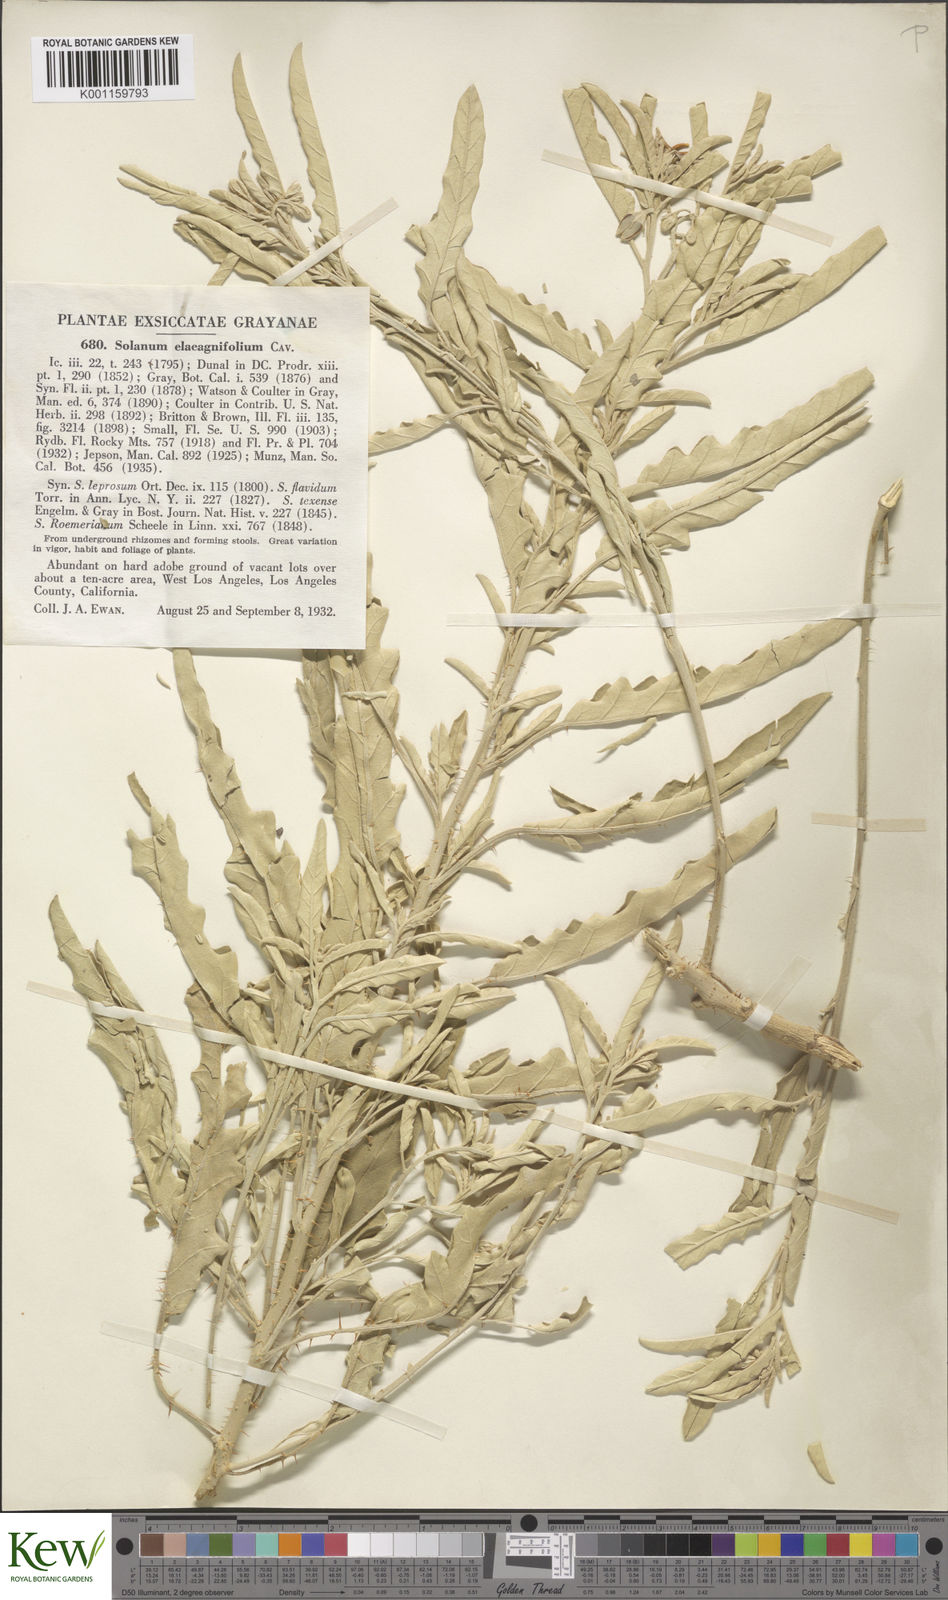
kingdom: Plantae
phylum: Tracheophyta
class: Magnoliopsida
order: Solanales
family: Solanaceae
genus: Solanum
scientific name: Solanum
